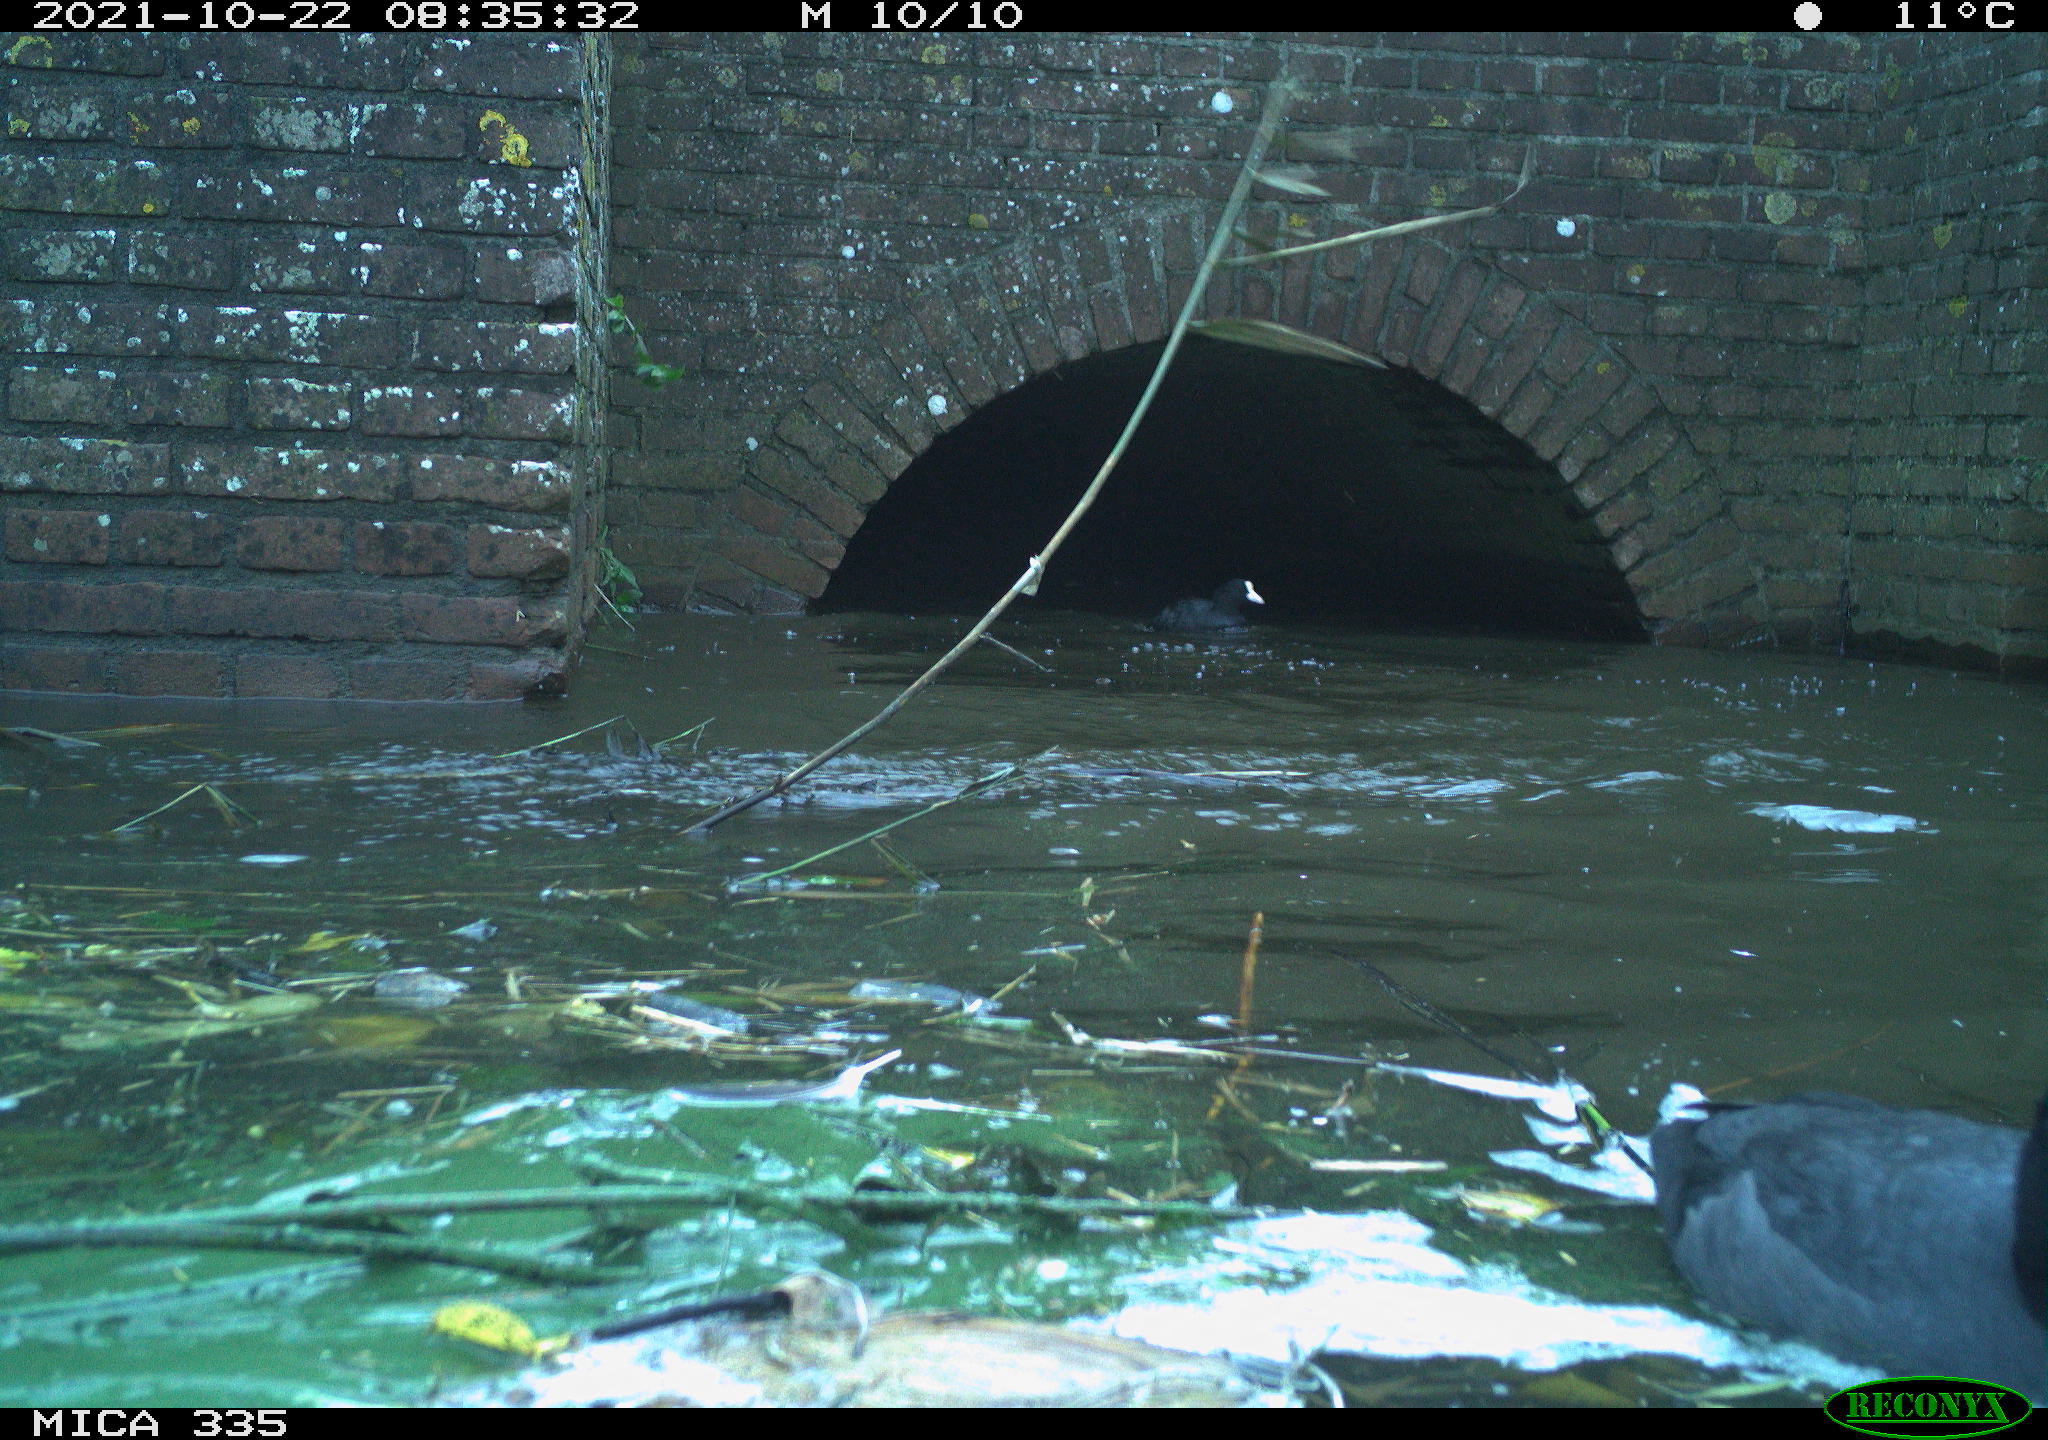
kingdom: Animalia
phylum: Chordata
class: Aves
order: Suliformes
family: Phalacrocoracidae
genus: Phalacrocorax
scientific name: Phalacrocorax carbo
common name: Great cormorant
